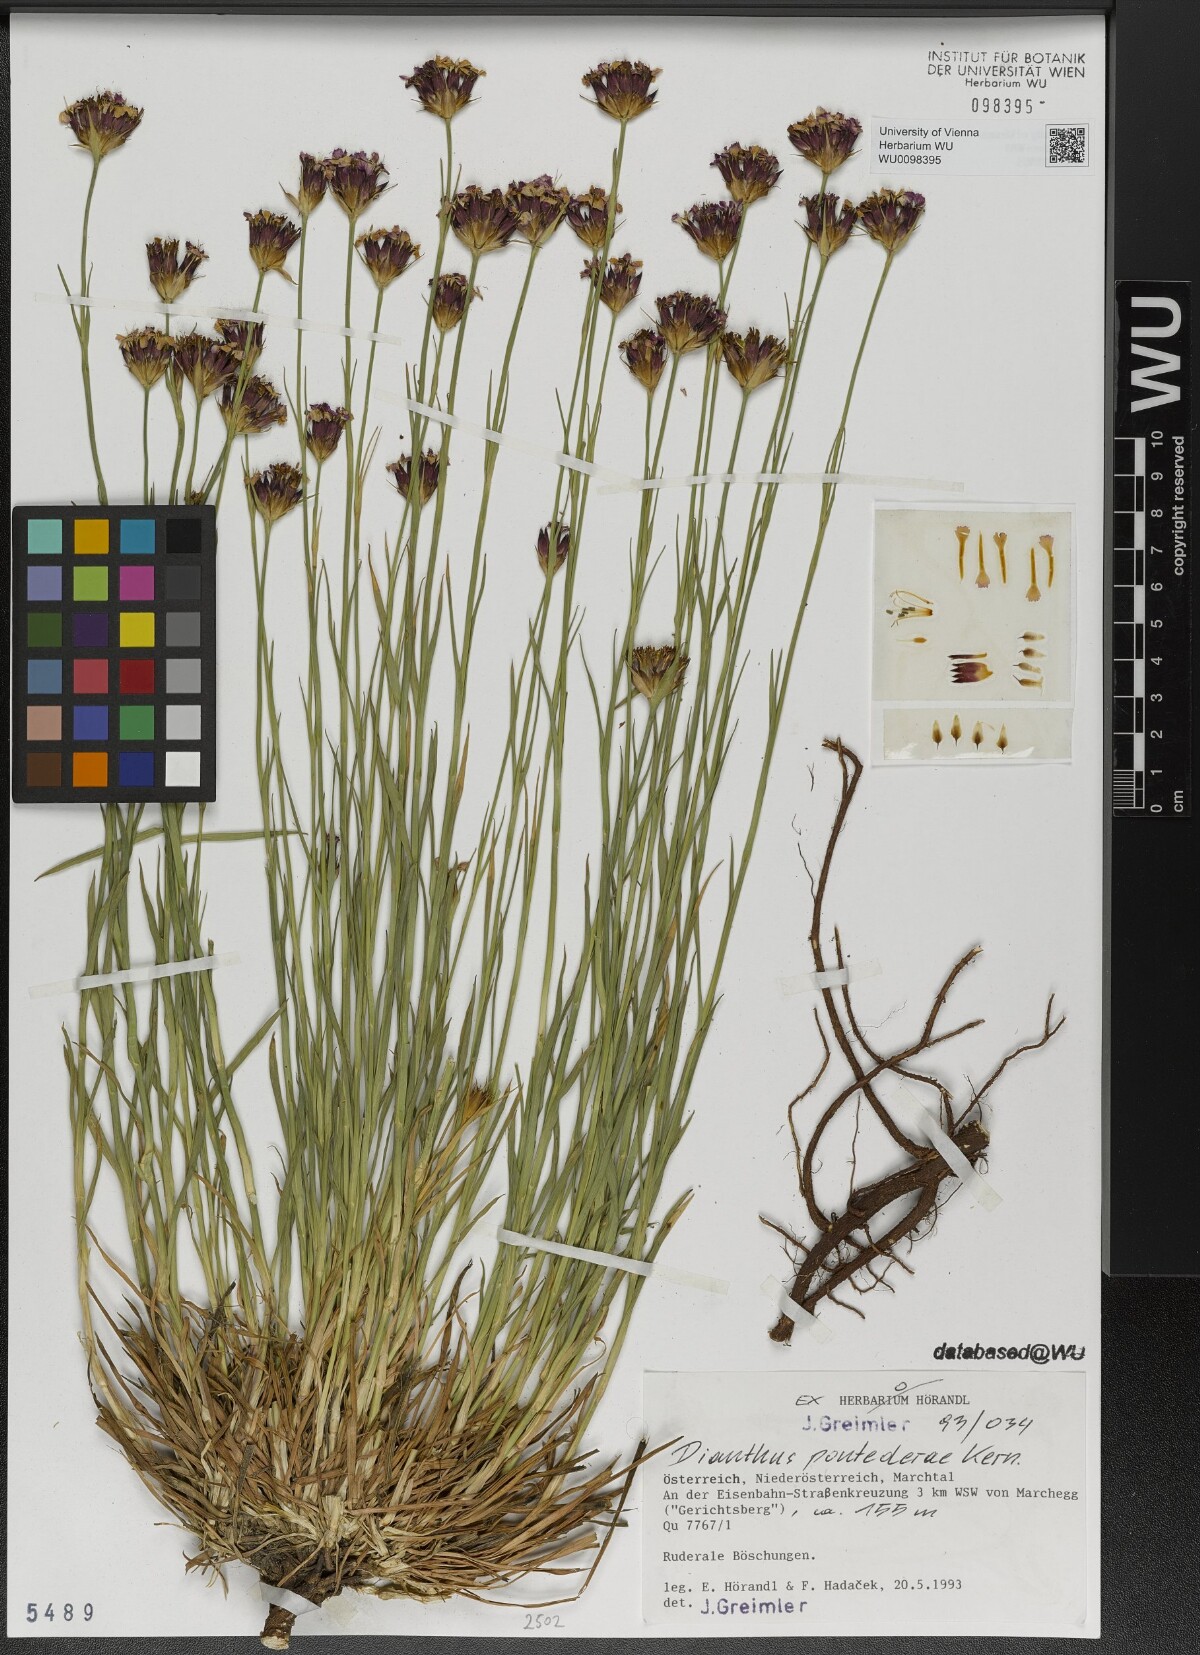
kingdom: Plantae
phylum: Tracheophyta
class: Magnoliopsida
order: Caryophyllales
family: Caryophyllaceae
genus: Dianthus
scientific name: Dianthus pontederae
